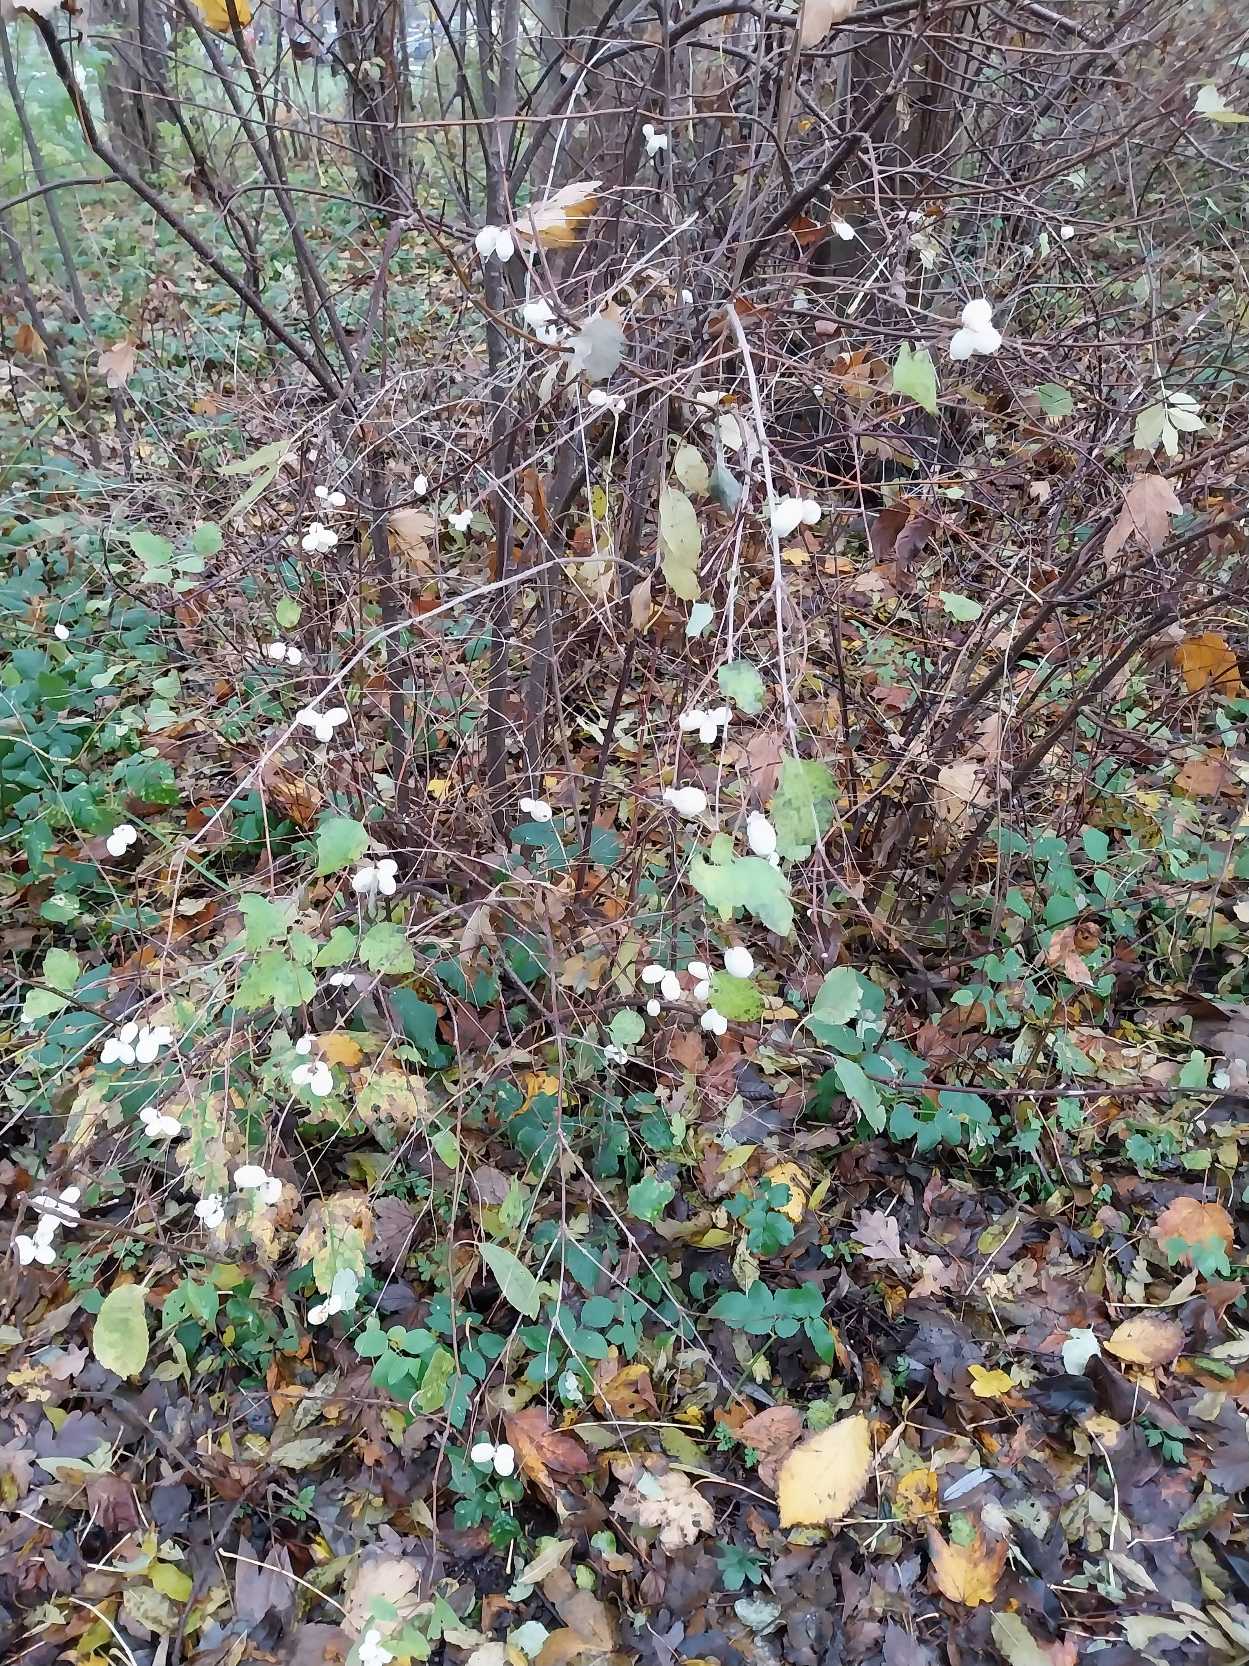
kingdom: Plantae
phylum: Tracheophyta
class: Magnoliopsida
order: Dipsacales
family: Caprifoliaceae
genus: Symphoricarpos
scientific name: Symphoricarpos albus
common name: Almindelig snebær
